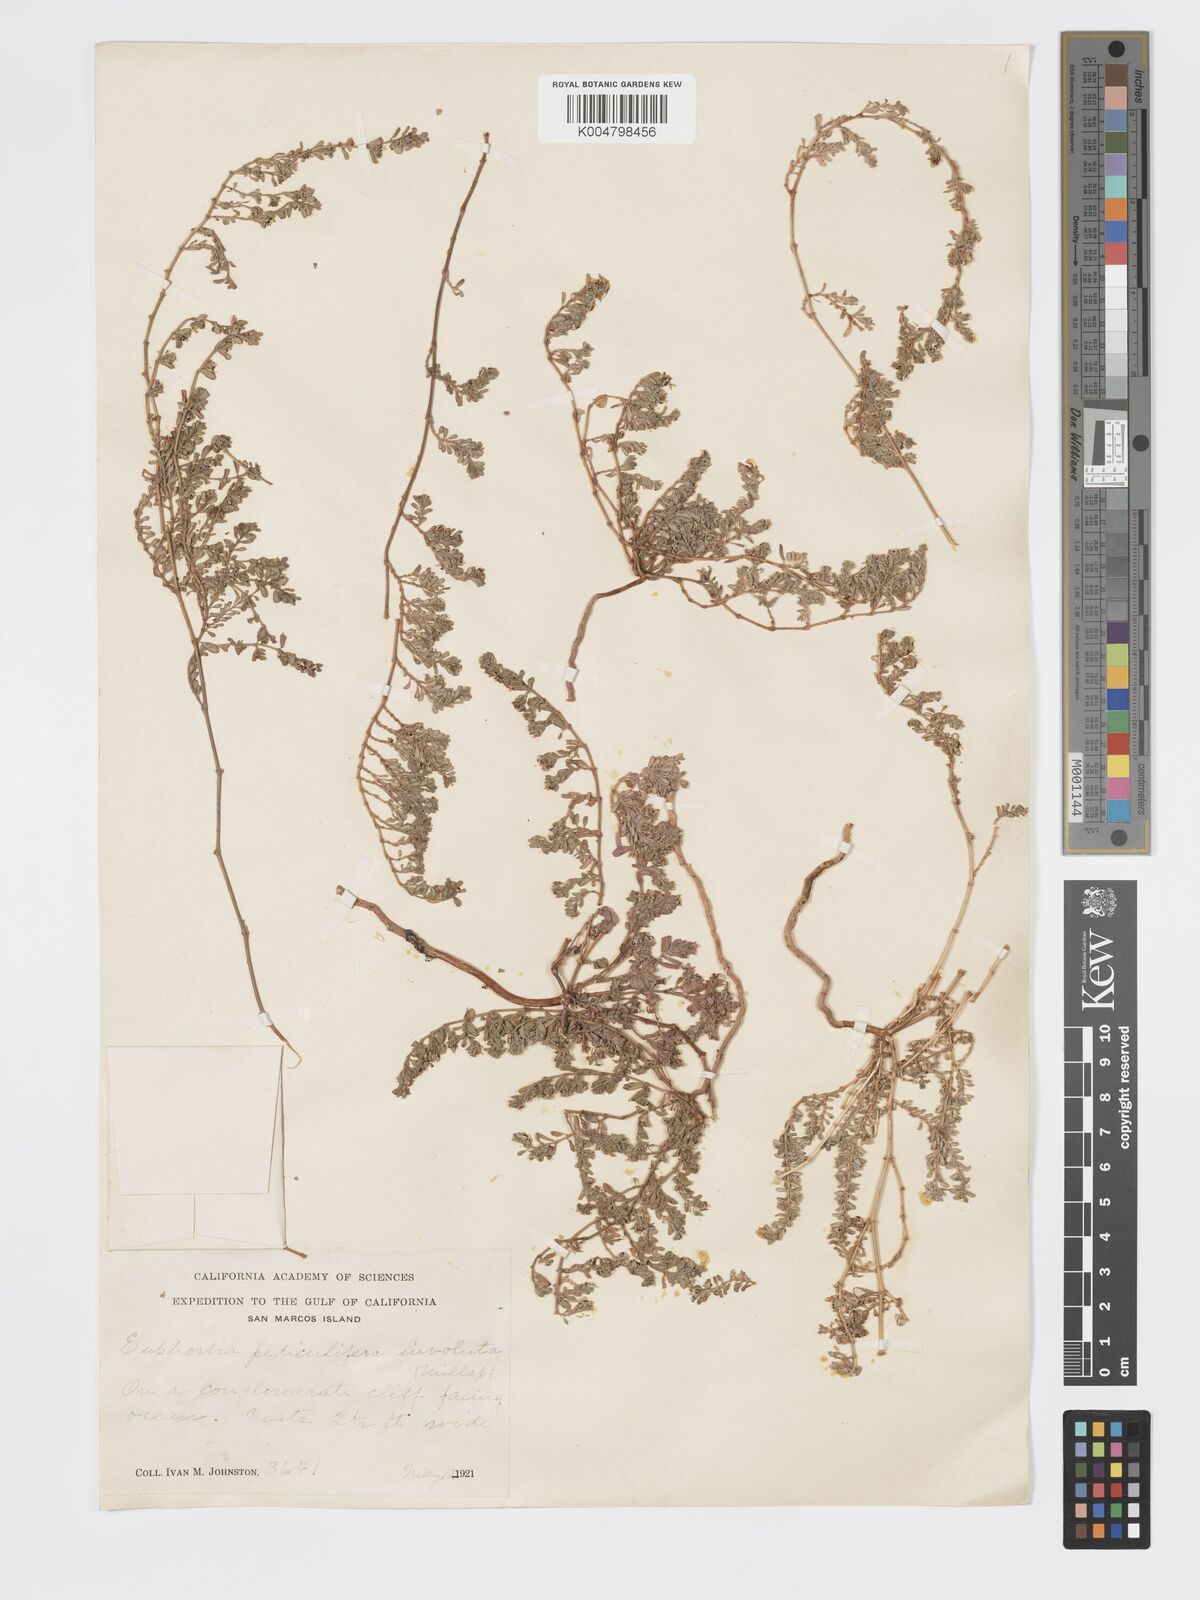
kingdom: Plantae
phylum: Tracheophyta
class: Magnoliopsida
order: Malpighiales
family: Euphorbiaceae
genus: Euphorbia
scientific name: Euphorbia pediculifera
